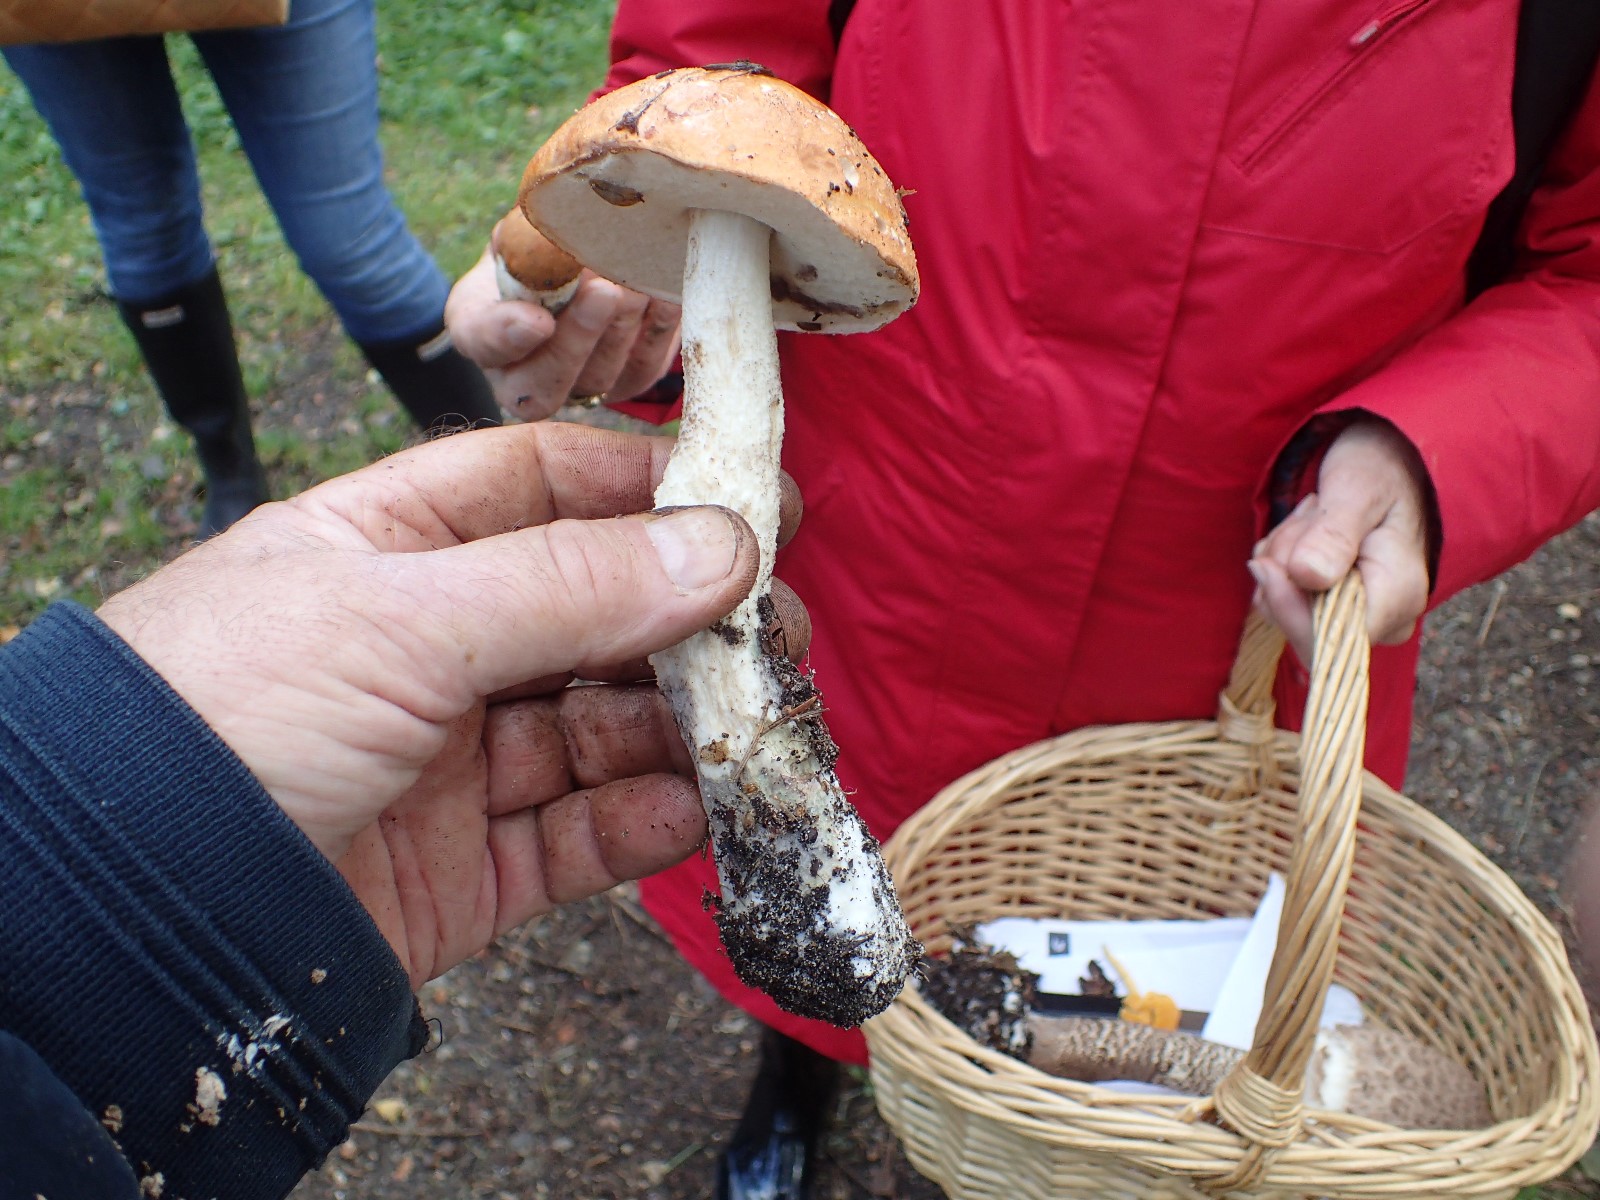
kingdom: Fungi
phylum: Basidiomycota
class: Agaricomycetes
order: Boletales
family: Boletaceae
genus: Leccinum
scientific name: Leccinum aurantiacum
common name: rustrød skælrørhat
